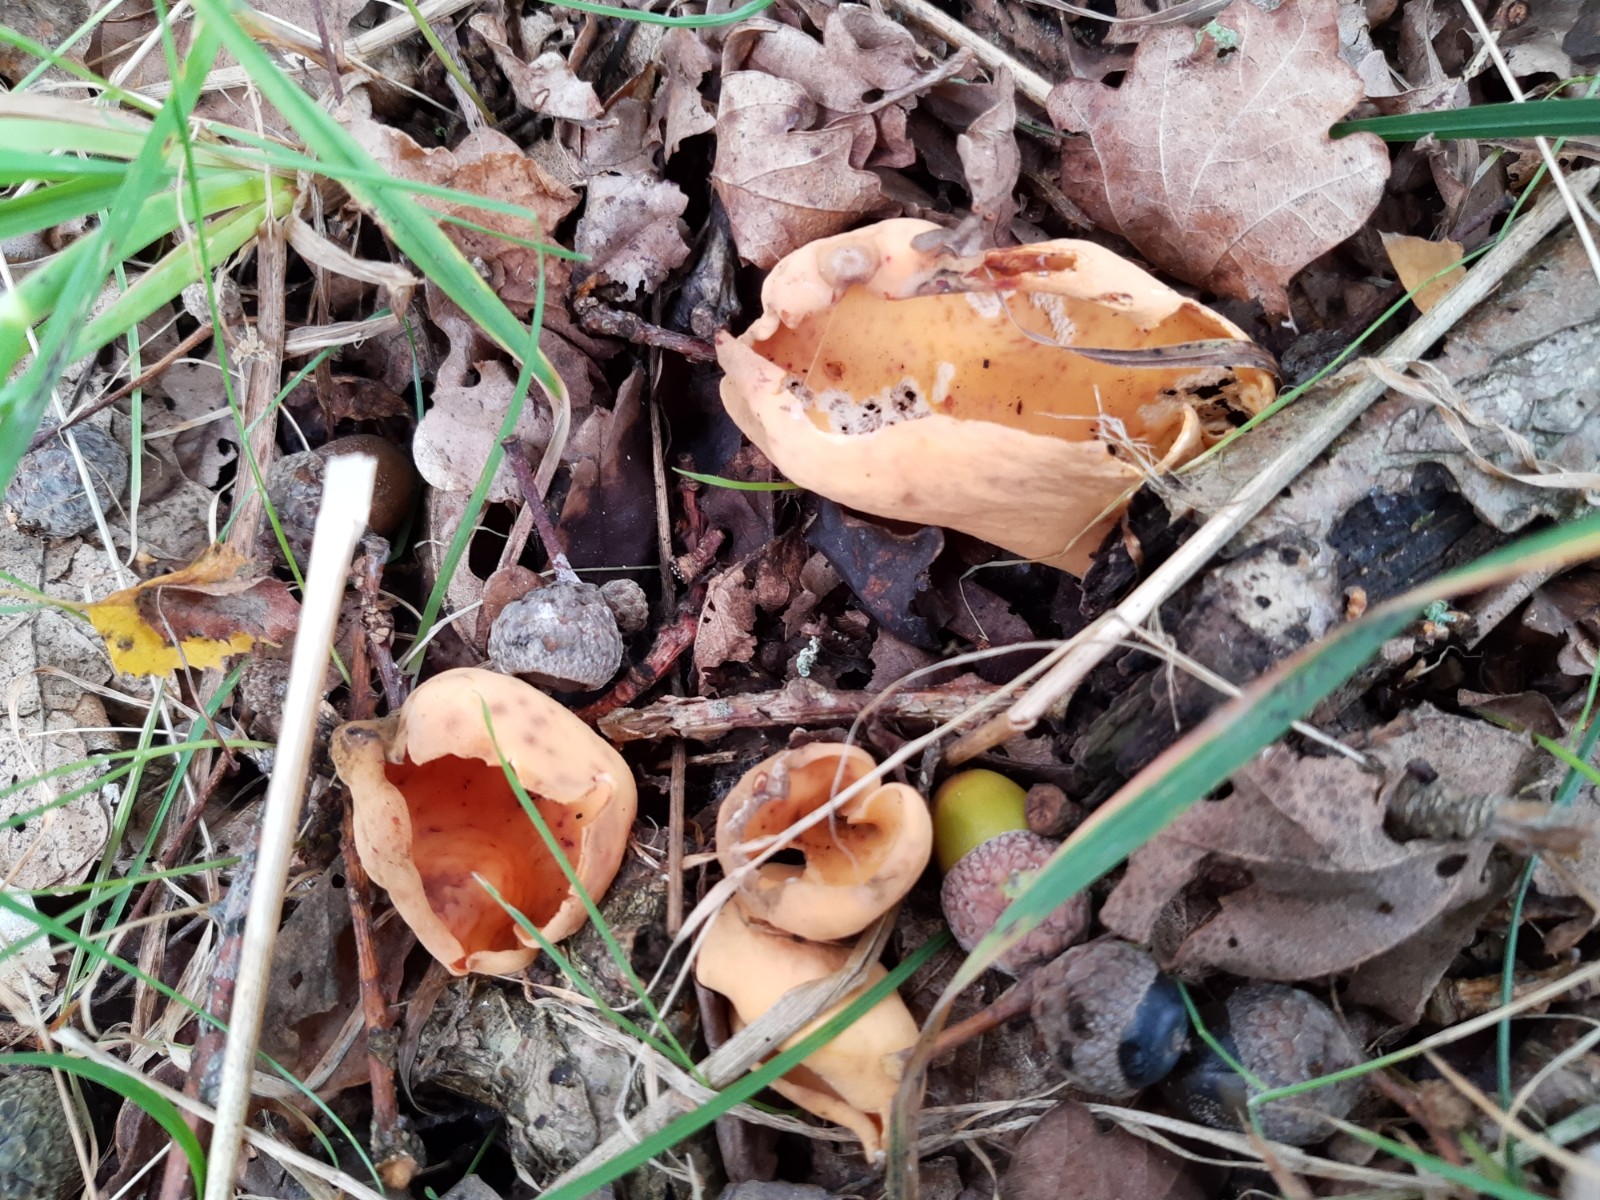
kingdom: Fungi
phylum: Ascomycota
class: Pezizomycetes
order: Pezizales
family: Otideaceae
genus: Otidea
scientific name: Otidea onotica
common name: æsel-ørebæger
